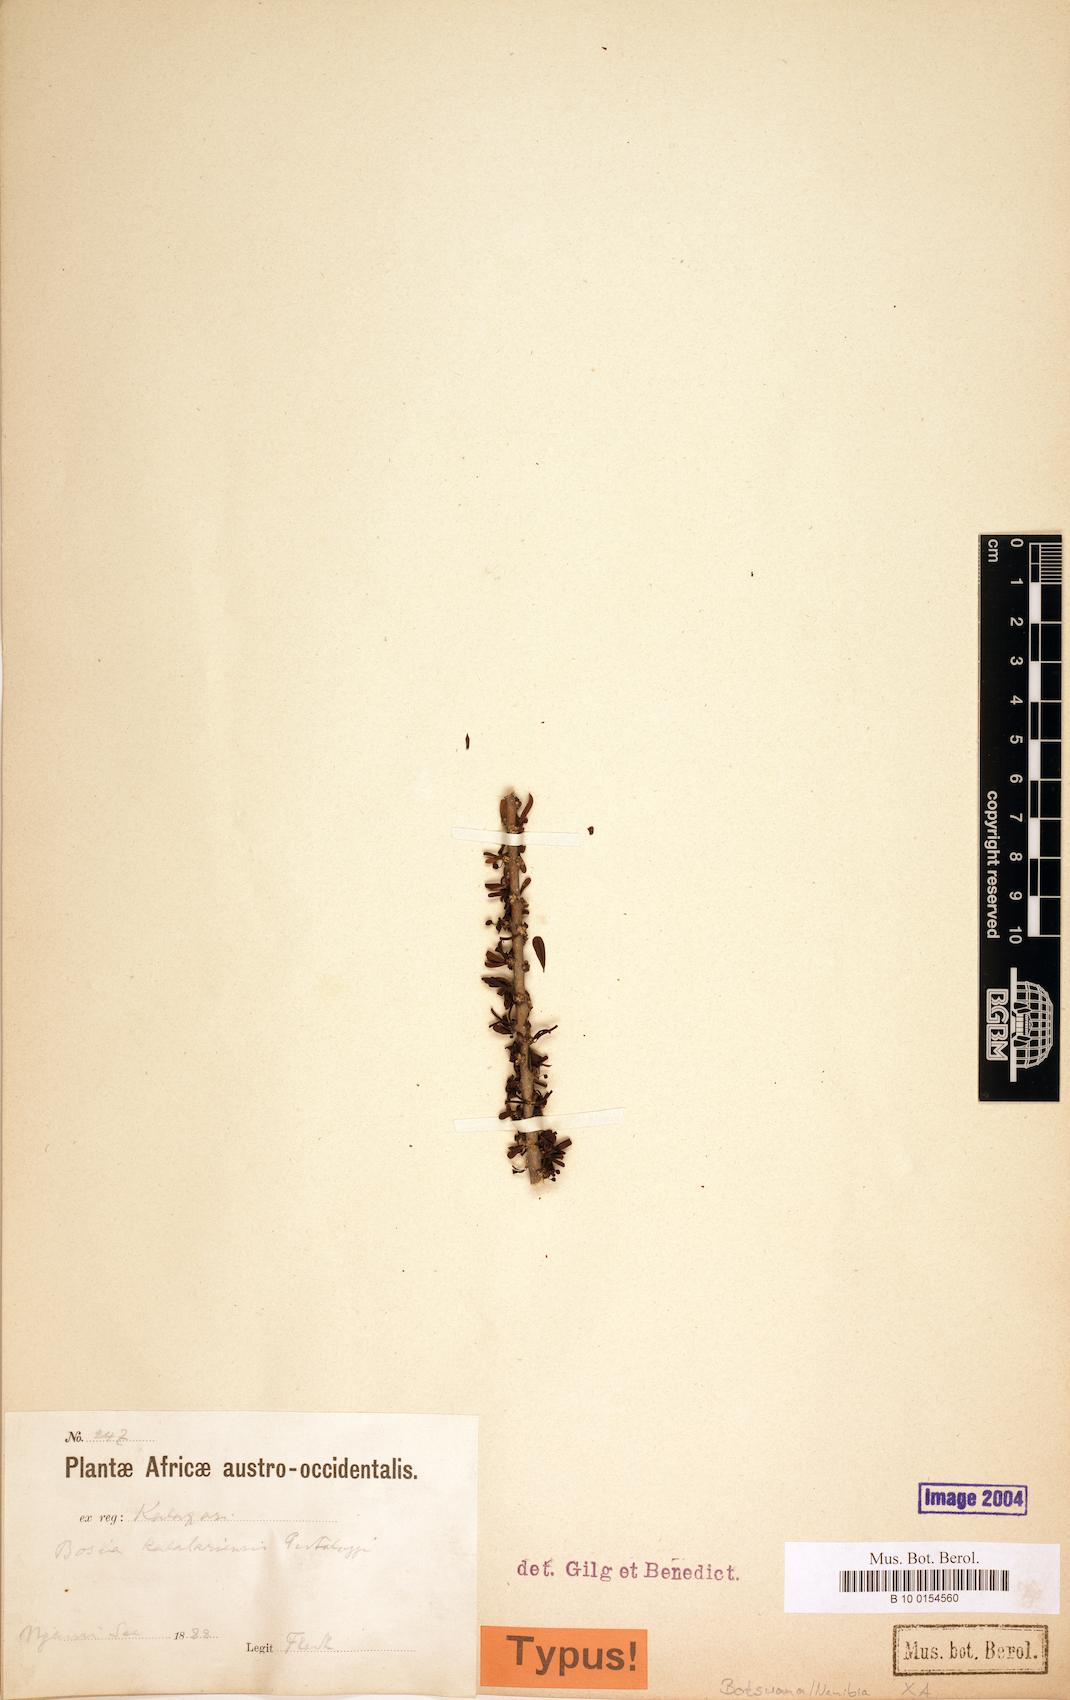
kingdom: Plantae
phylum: Tracheophyta
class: Magnoliopsida
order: Brassicales
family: Capparaceae
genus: Boscia
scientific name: Boscia foetida
